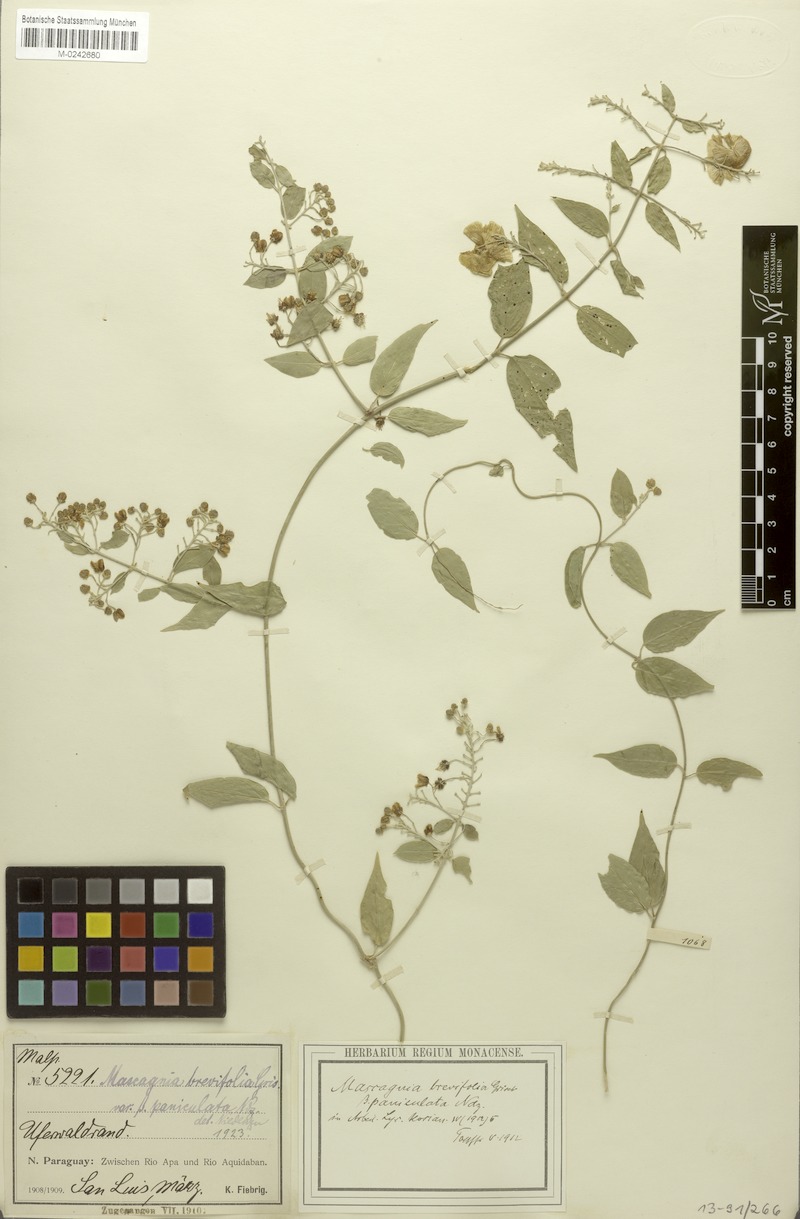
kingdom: Plantae
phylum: Tracheophyta
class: Magnoliopsida
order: Malpighiales
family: Malpighiaceae
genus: Mascagnia
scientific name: Mascagnia brevifolia
